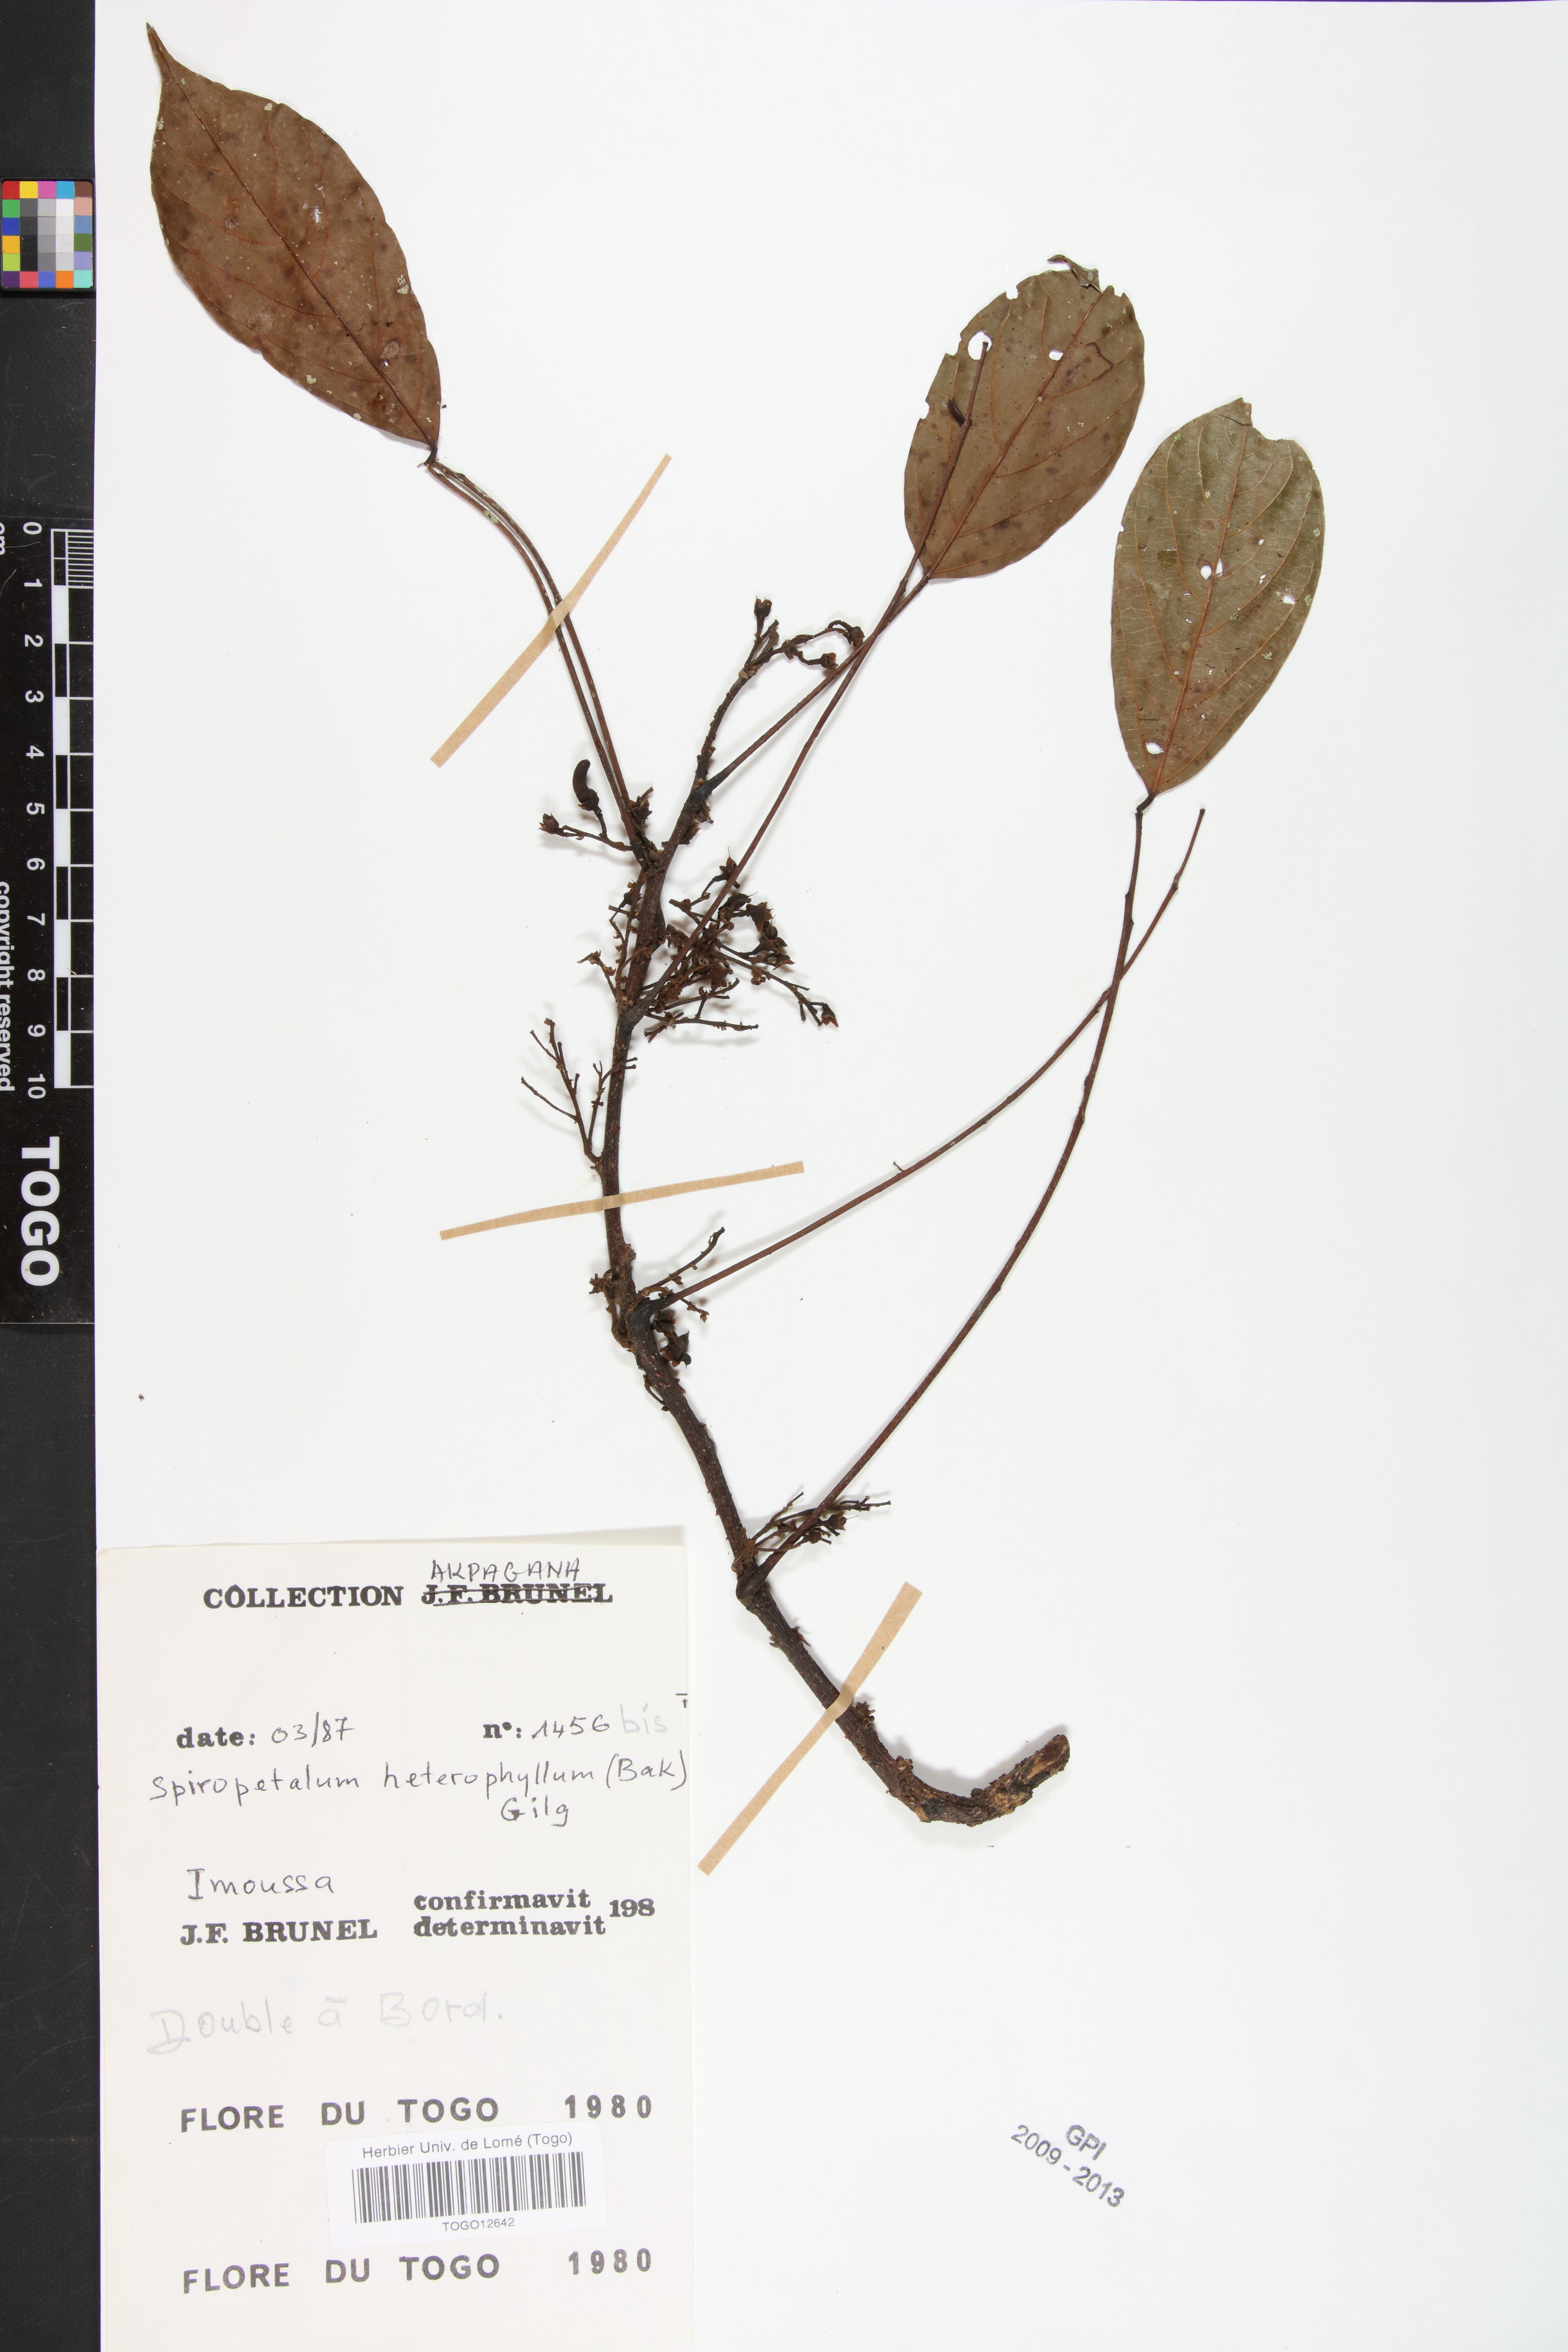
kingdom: Plantae
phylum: Tracheophyta
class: Magnoliopsida
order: Oxalidales
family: Connaraceae
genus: Rourea
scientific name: Rourea solanderi
